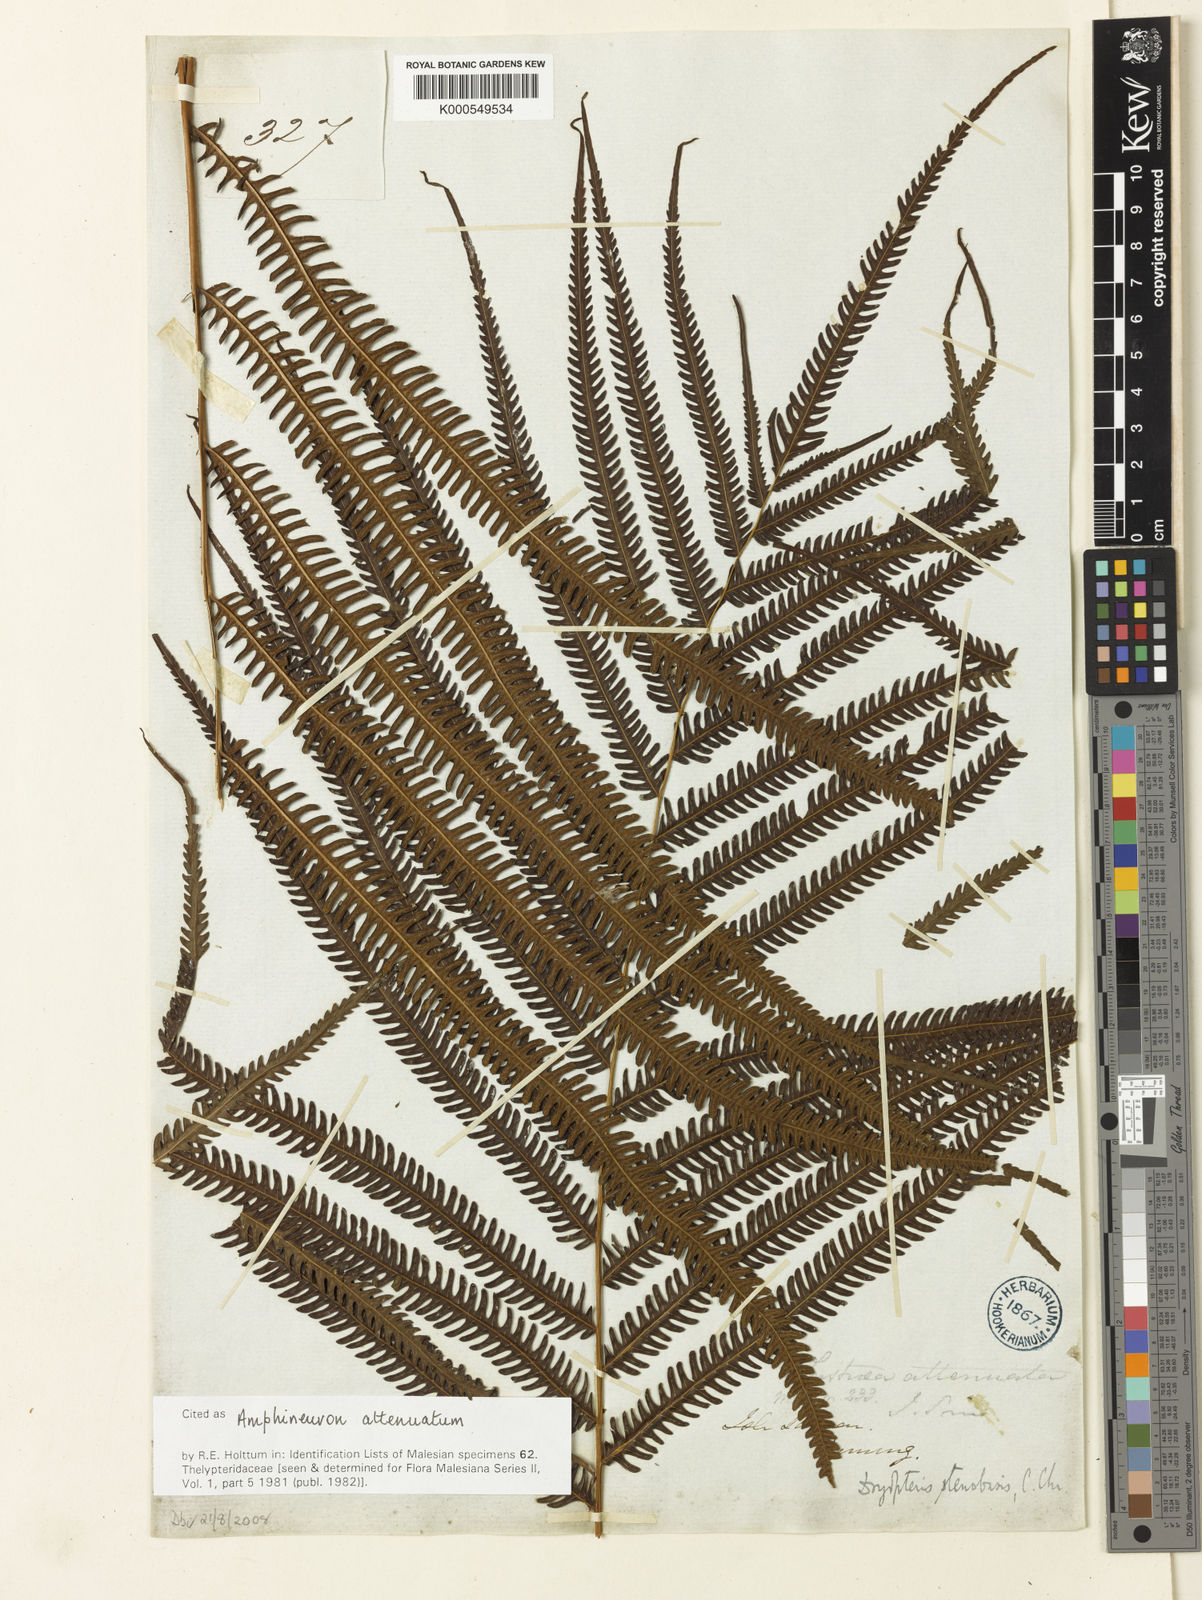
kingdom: Plantae
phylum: Tracheophyta
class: Polypodiopsida
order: Polypodiales
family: Thelypteridaceae
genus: Mesopteris
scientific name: Mesopteris attenuata
